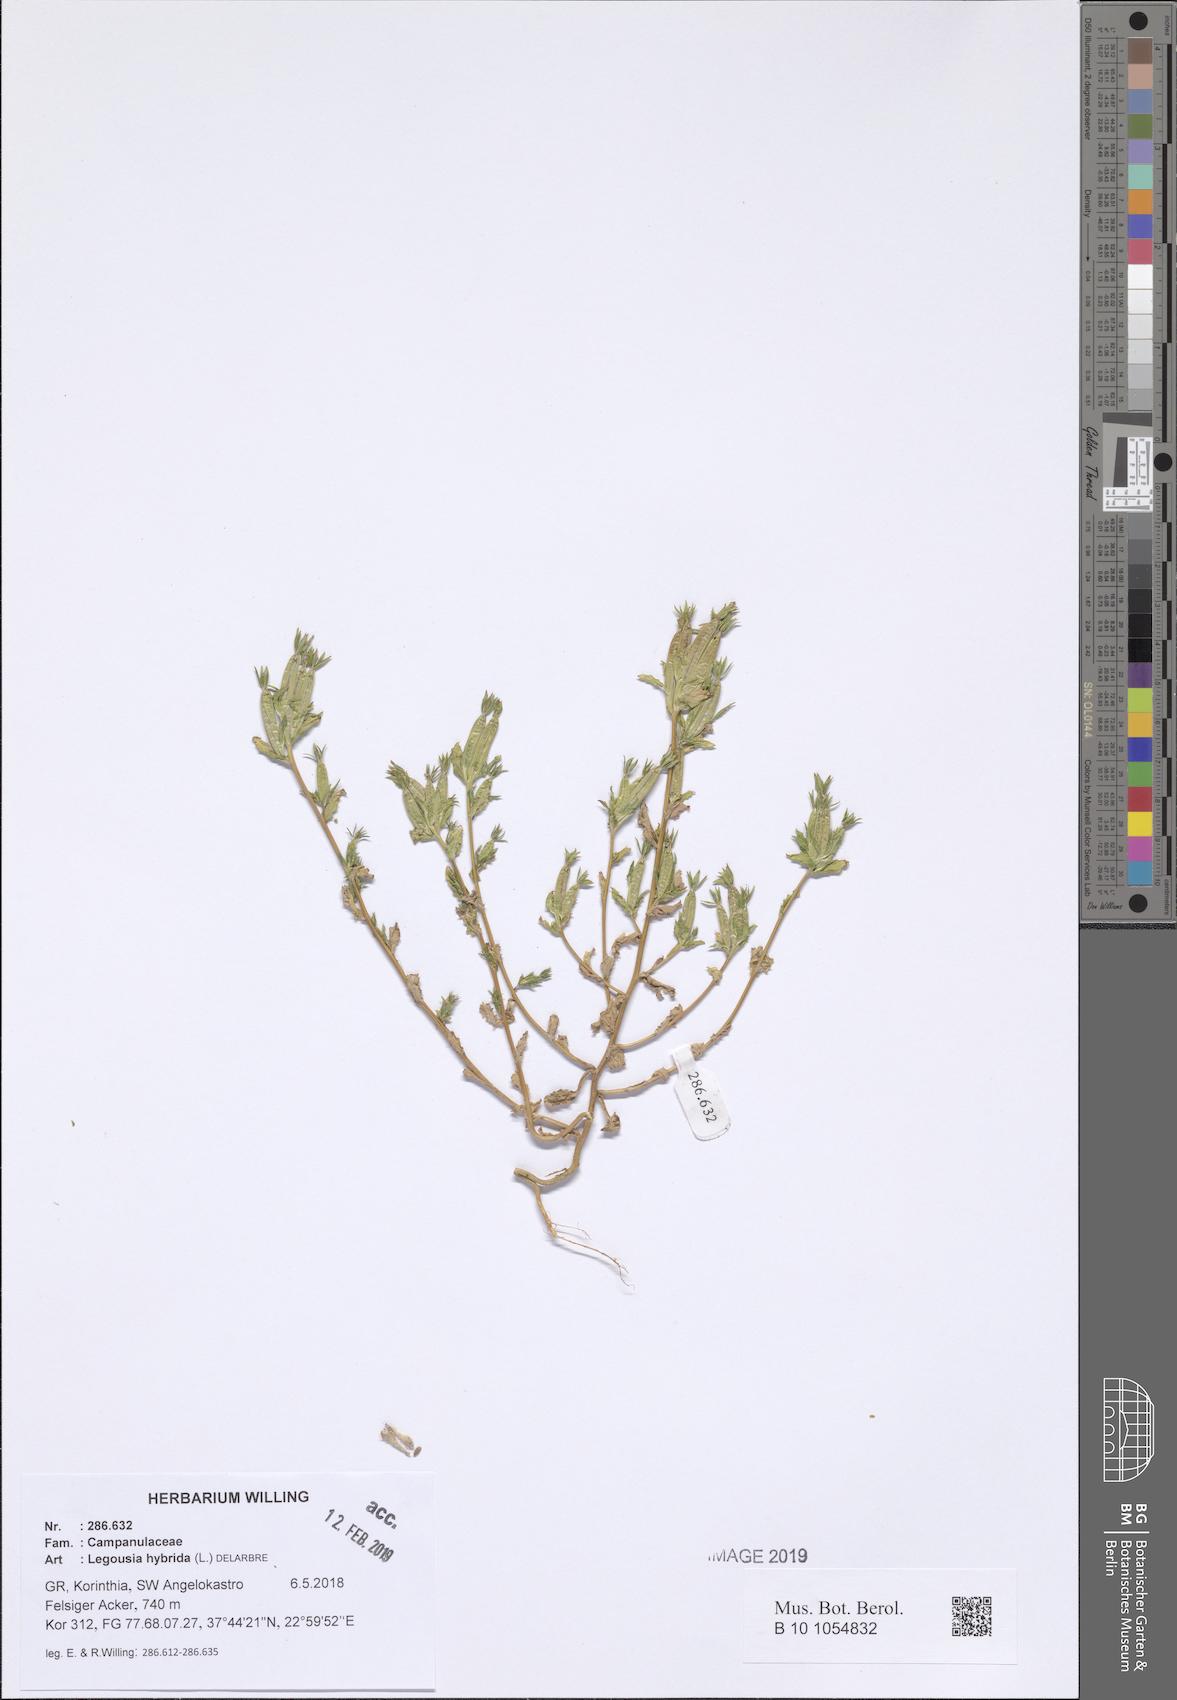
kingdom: Plantae
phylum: Tracheophyta
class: Magnoliopsida
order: Asterales
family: Campanulaceae
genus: Legousia
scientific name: Legousia hybrida
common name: Venus's-looking-glass
